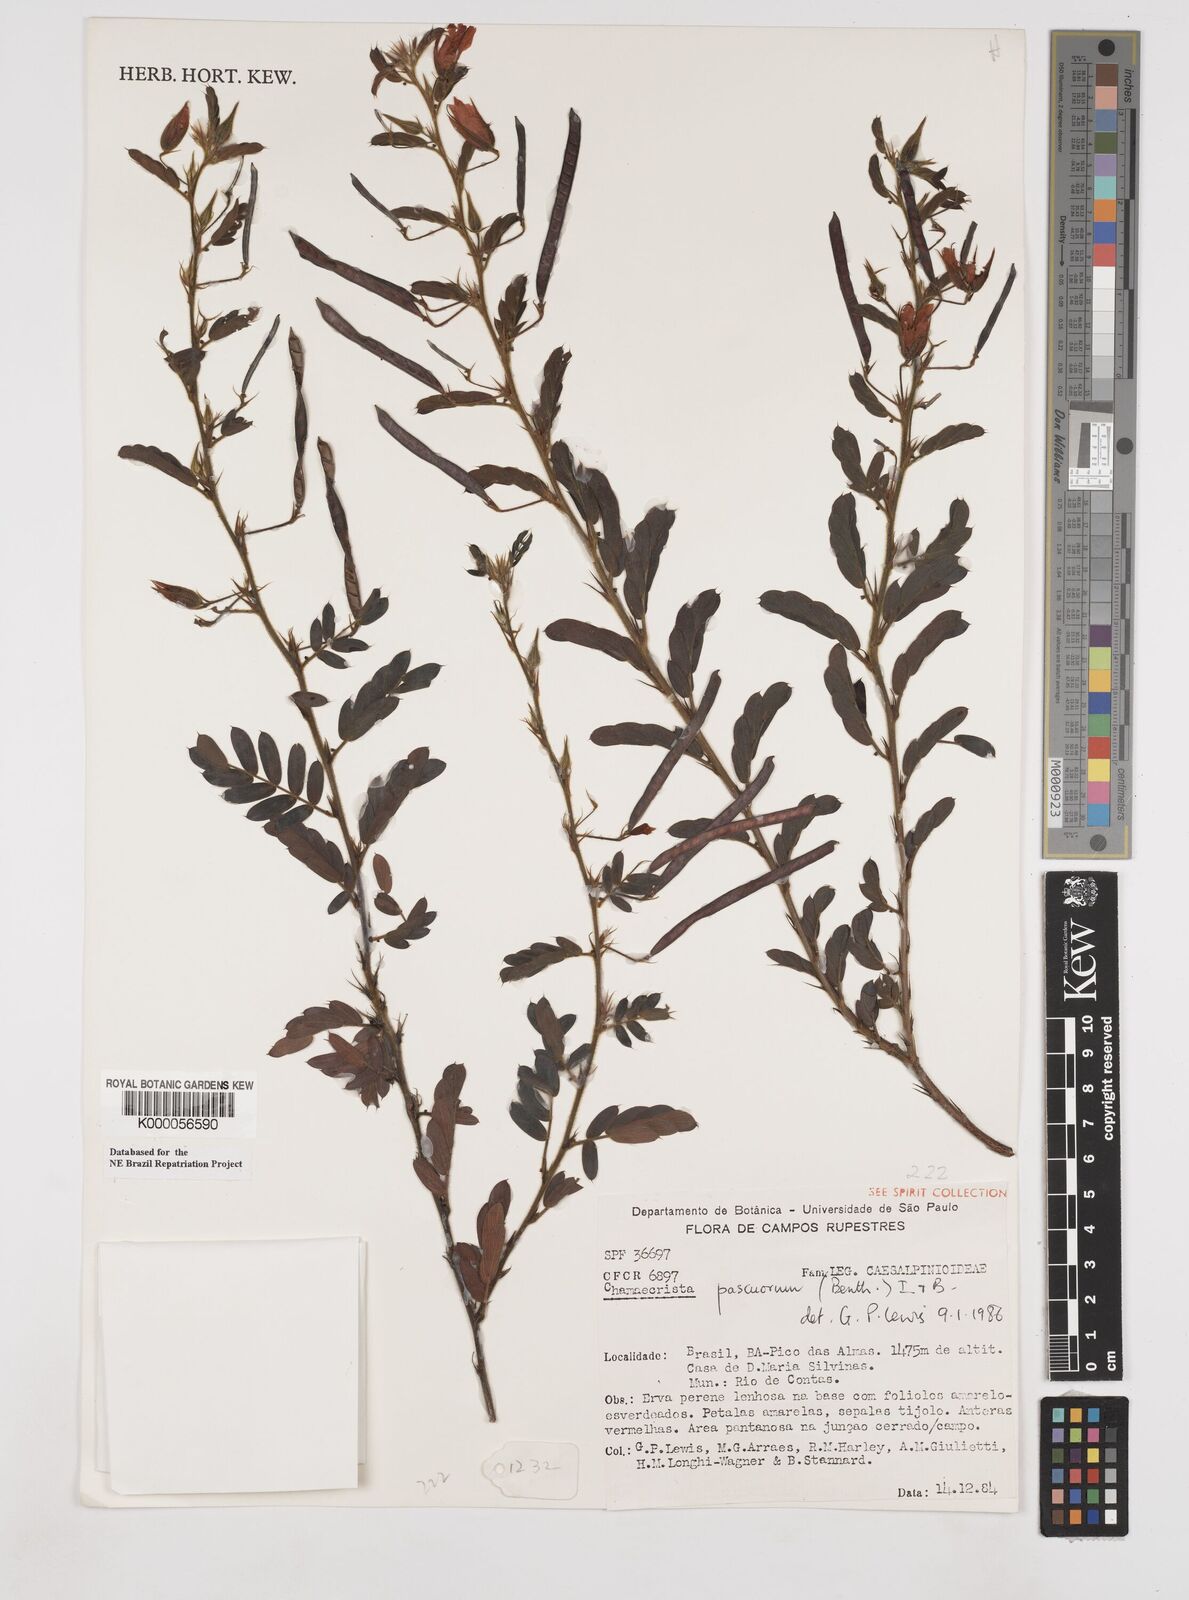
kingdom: Plantae
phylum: Tracheophyta
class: Magnoliopsida
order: Fabales
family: Fabaceae
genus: Chamaecrista
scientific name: Chamaecrista pascuorum
